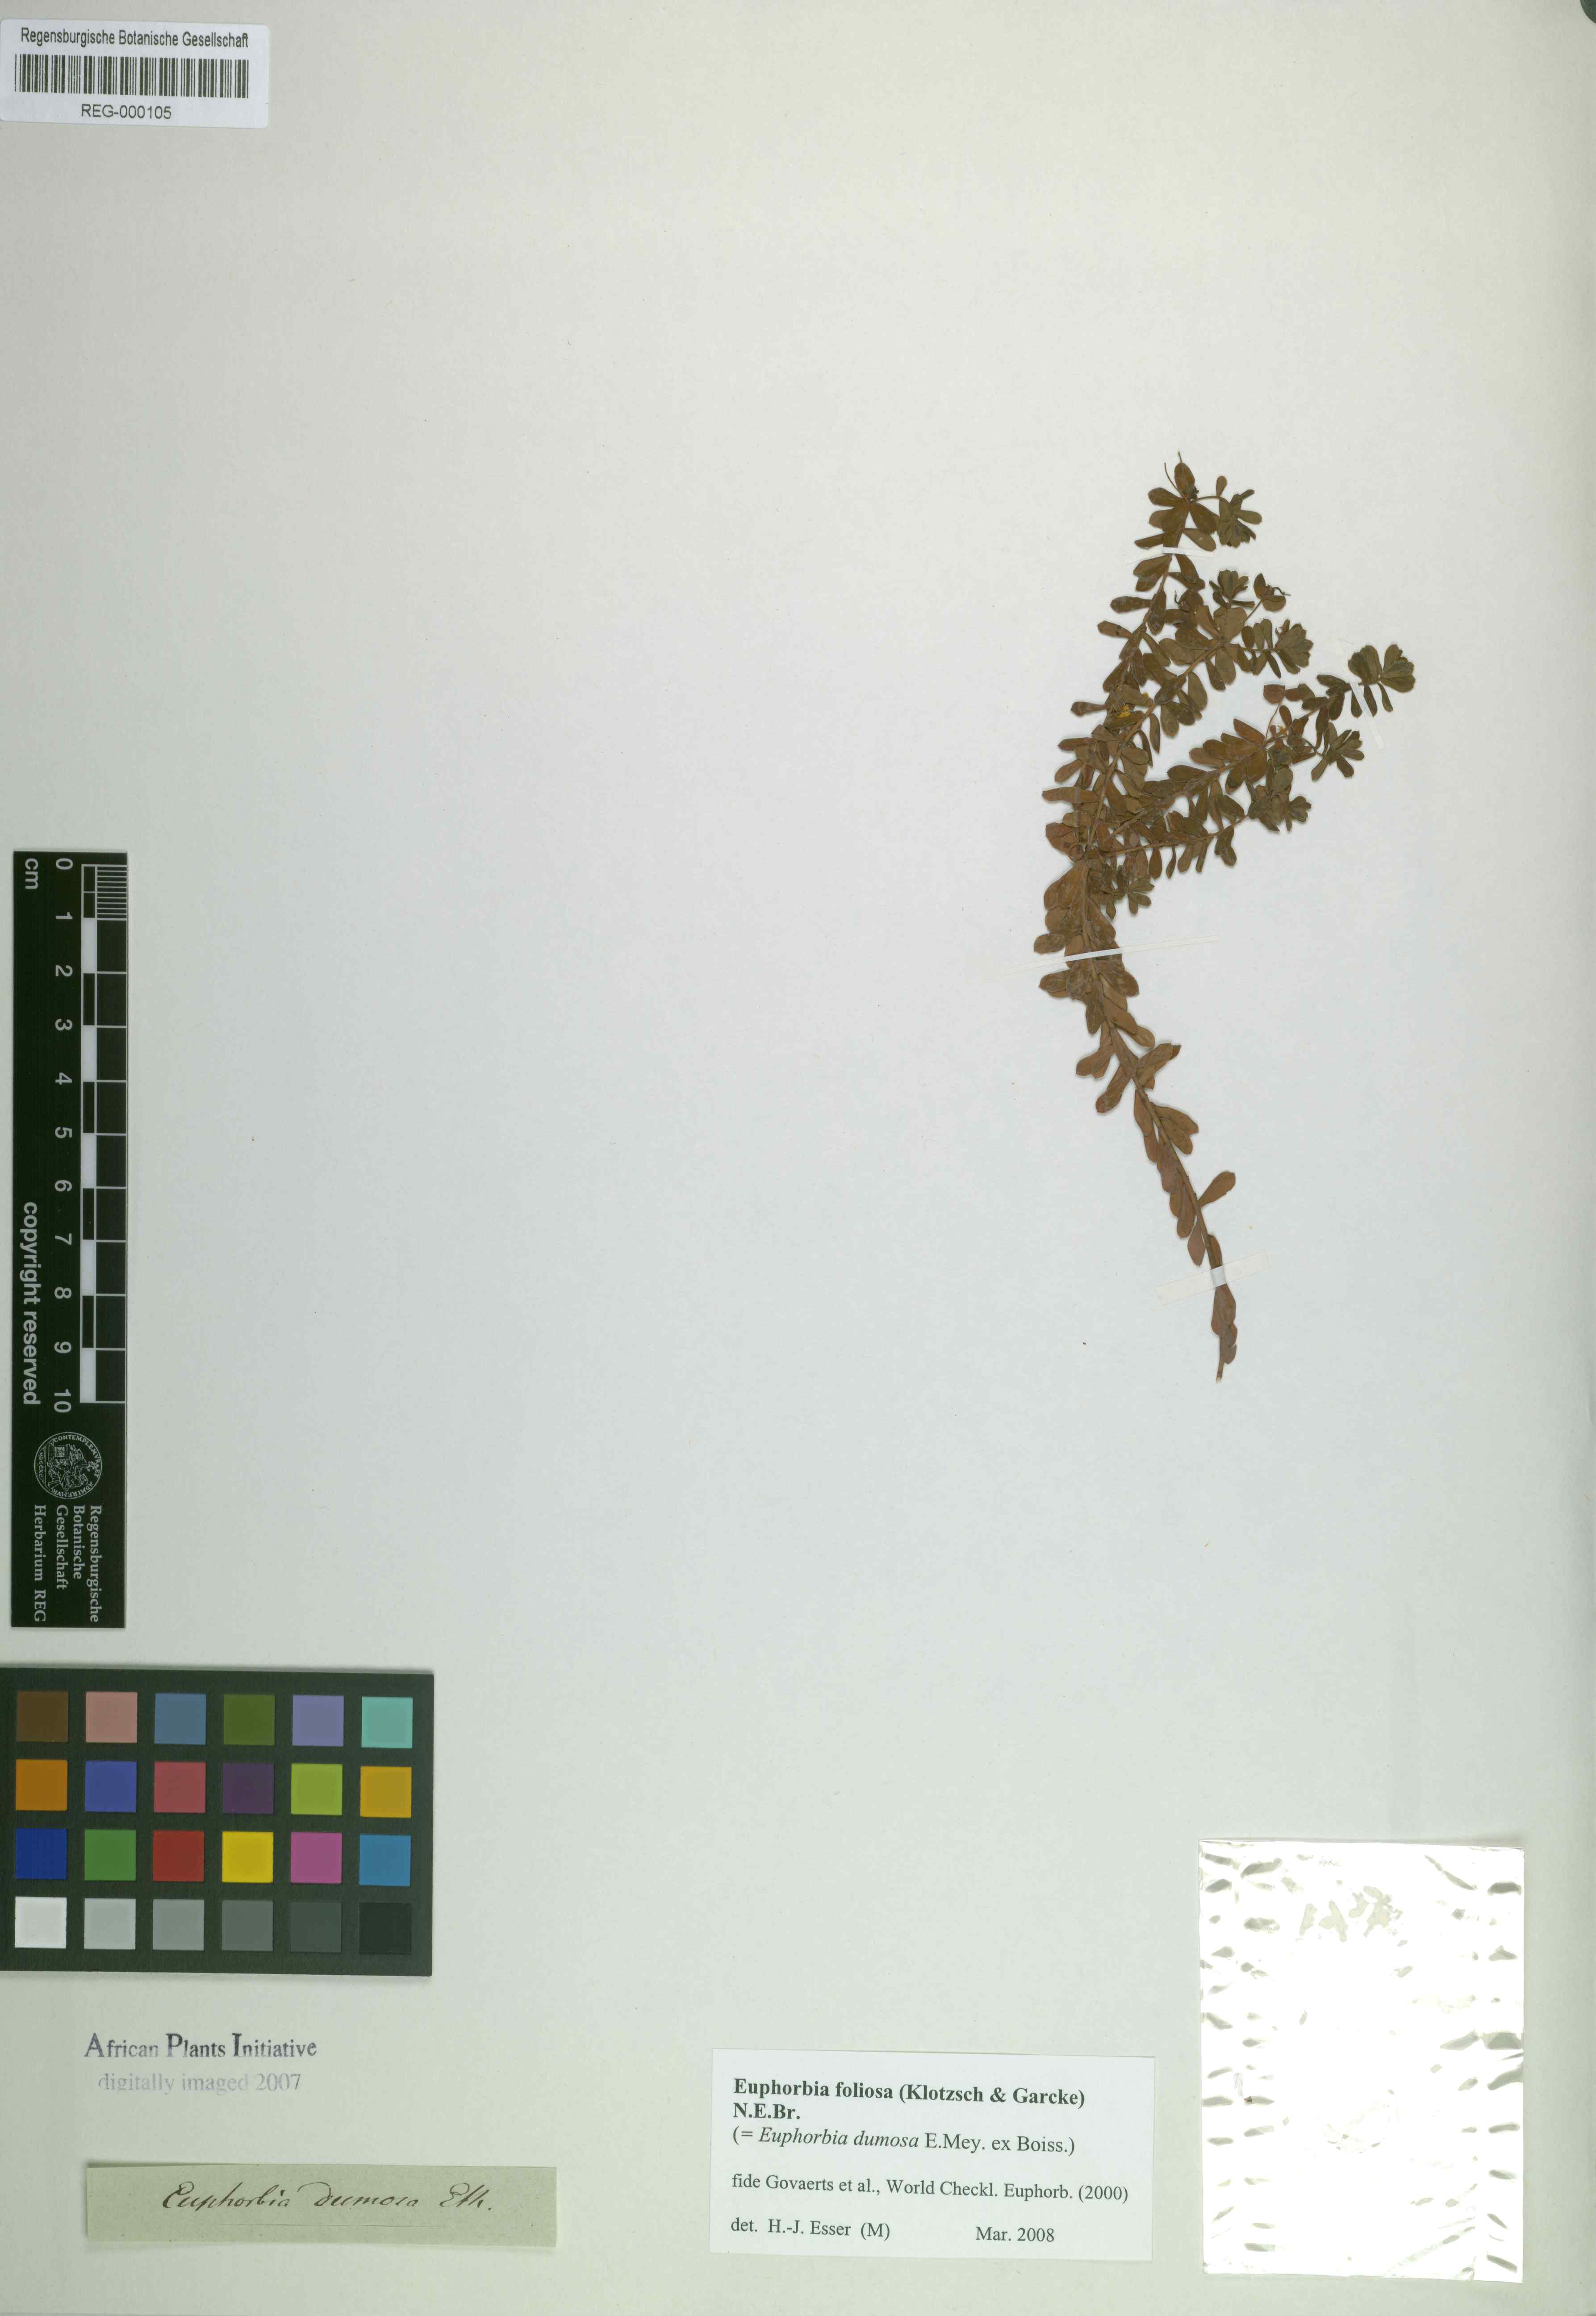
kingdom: Plantae
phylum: Tracheophyta
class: Magnoliopsida
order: Malpighiales
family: Euphorbiaceae
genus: Euphorbia
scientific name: Euphorbia foliosa
